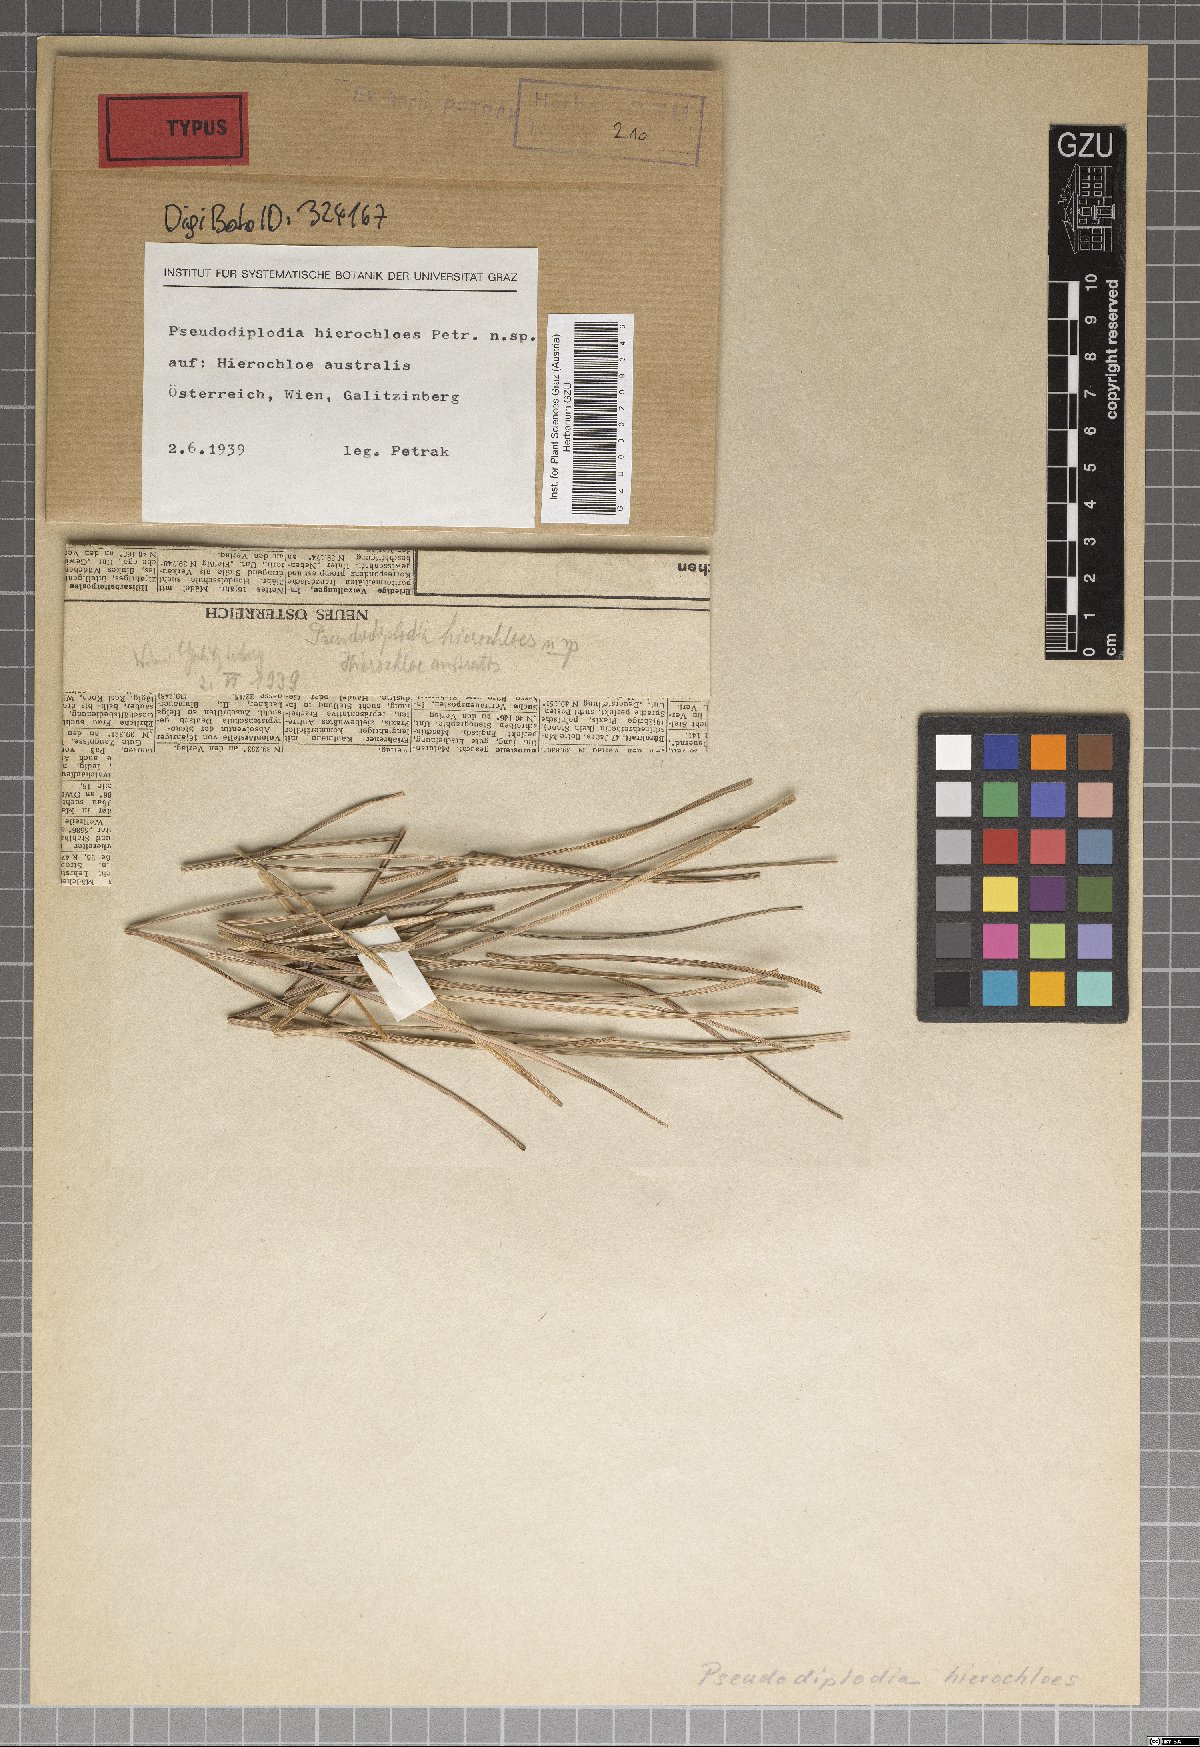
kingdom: Fungi
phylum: Ascomycota
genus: Pseudodiplodia
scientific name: Pseudodiplodia hierochloes
